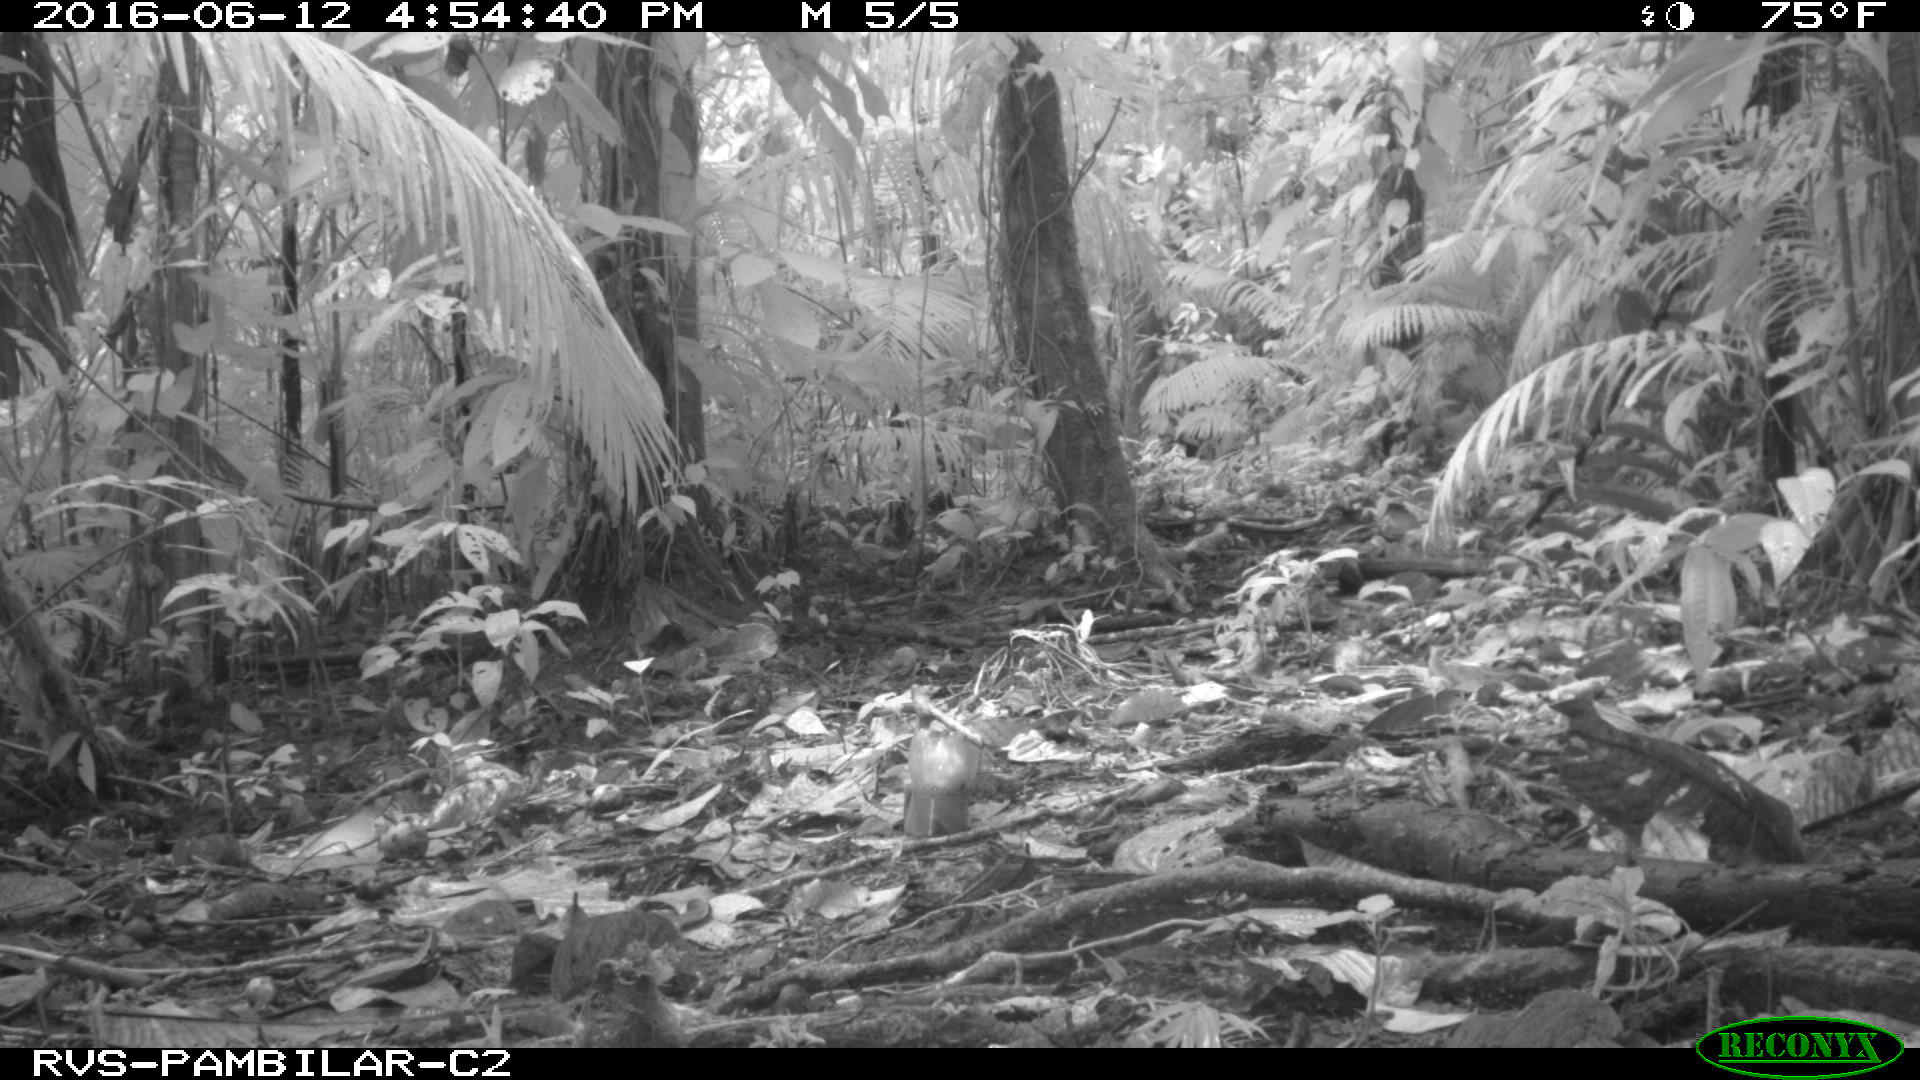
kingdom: Animalia
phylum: Chordata
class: Mammalia
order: Rodentia
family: Dasyproctidae
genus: Dasyprocta
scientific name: Dasyprocta punctata
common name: Central american agouti
